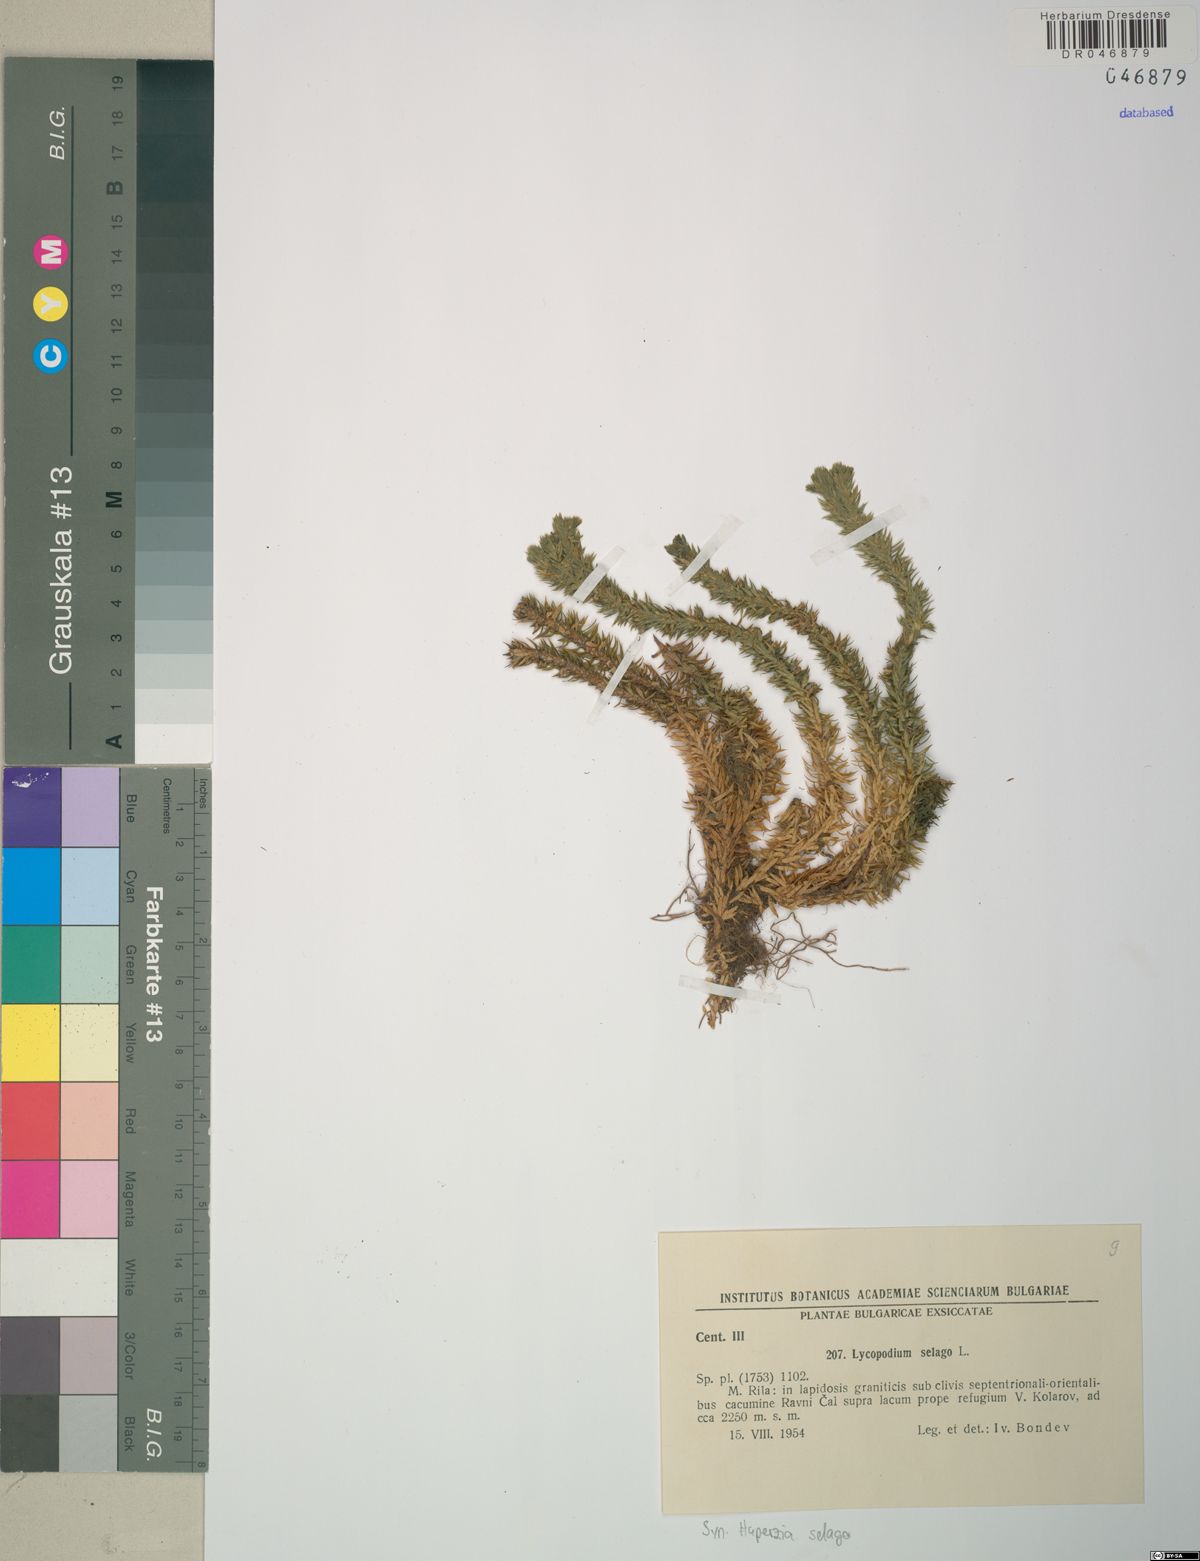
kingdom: Plantae
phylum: Tracheophyta
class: Lycopodiopsida
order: Lycopodiales
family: Lycopodiaceae
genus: Huperzia
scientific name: Huperzia selago
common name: Northern firmoss
